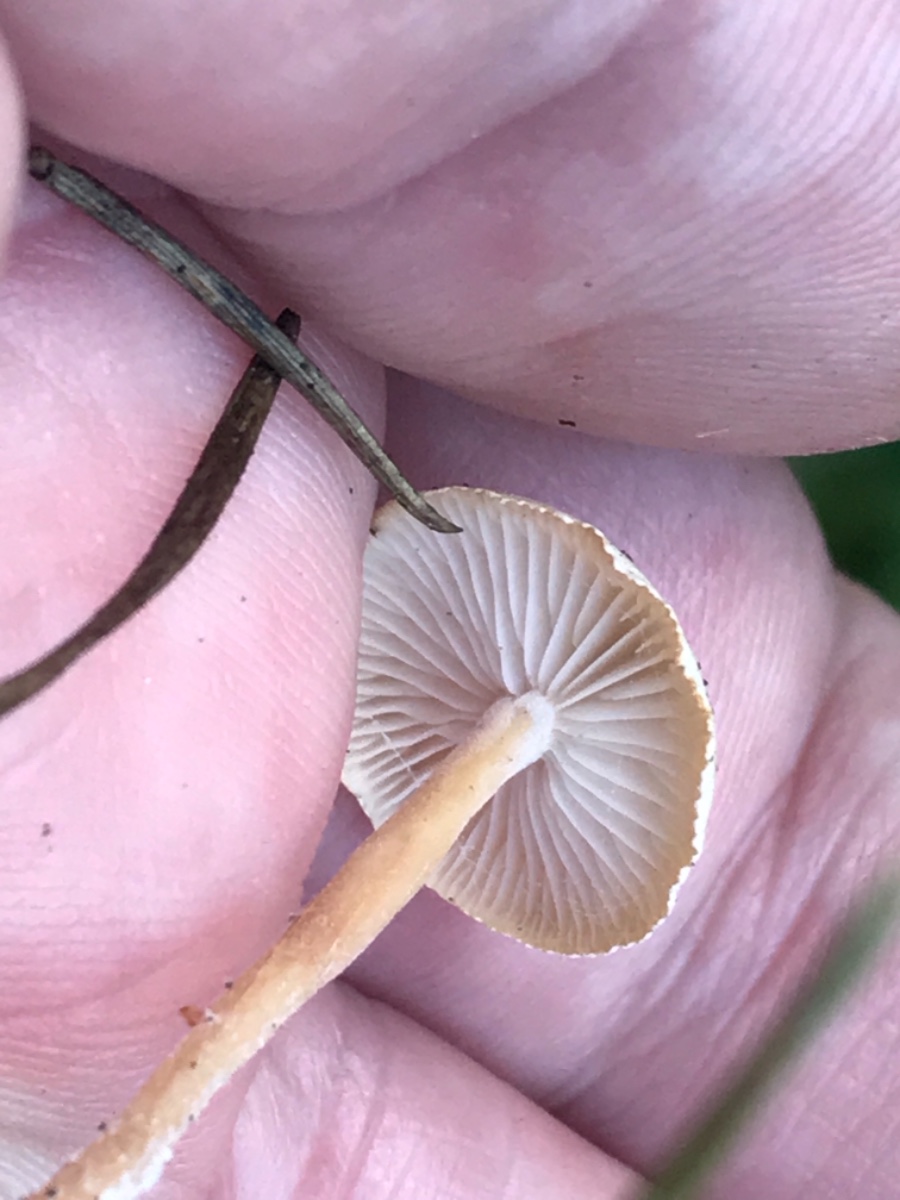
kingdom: Fungi
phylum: Basidiomycota
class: Agaricomycetes
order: Agaricales
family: Tricholomataceae
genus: Collybia
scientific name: Collybia cirrhata
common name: silke-lighat
